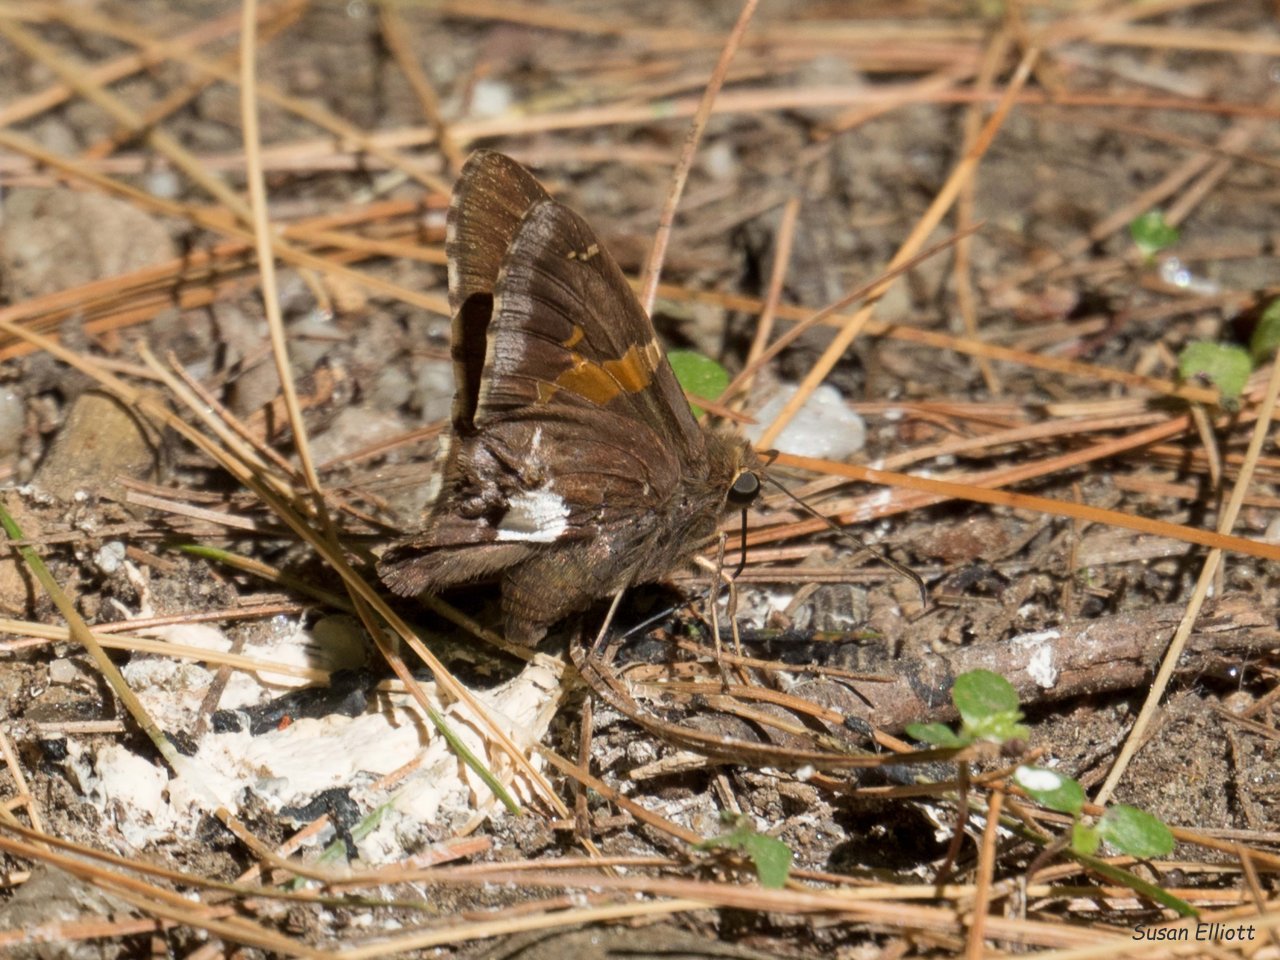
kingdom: Animalia
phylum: Arthropoda
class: Insecta
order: Lepidoptera
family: Hesperiidae
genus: Epargyreus
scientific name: Epargyreus clarus
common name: Silver-spotted Skipper
